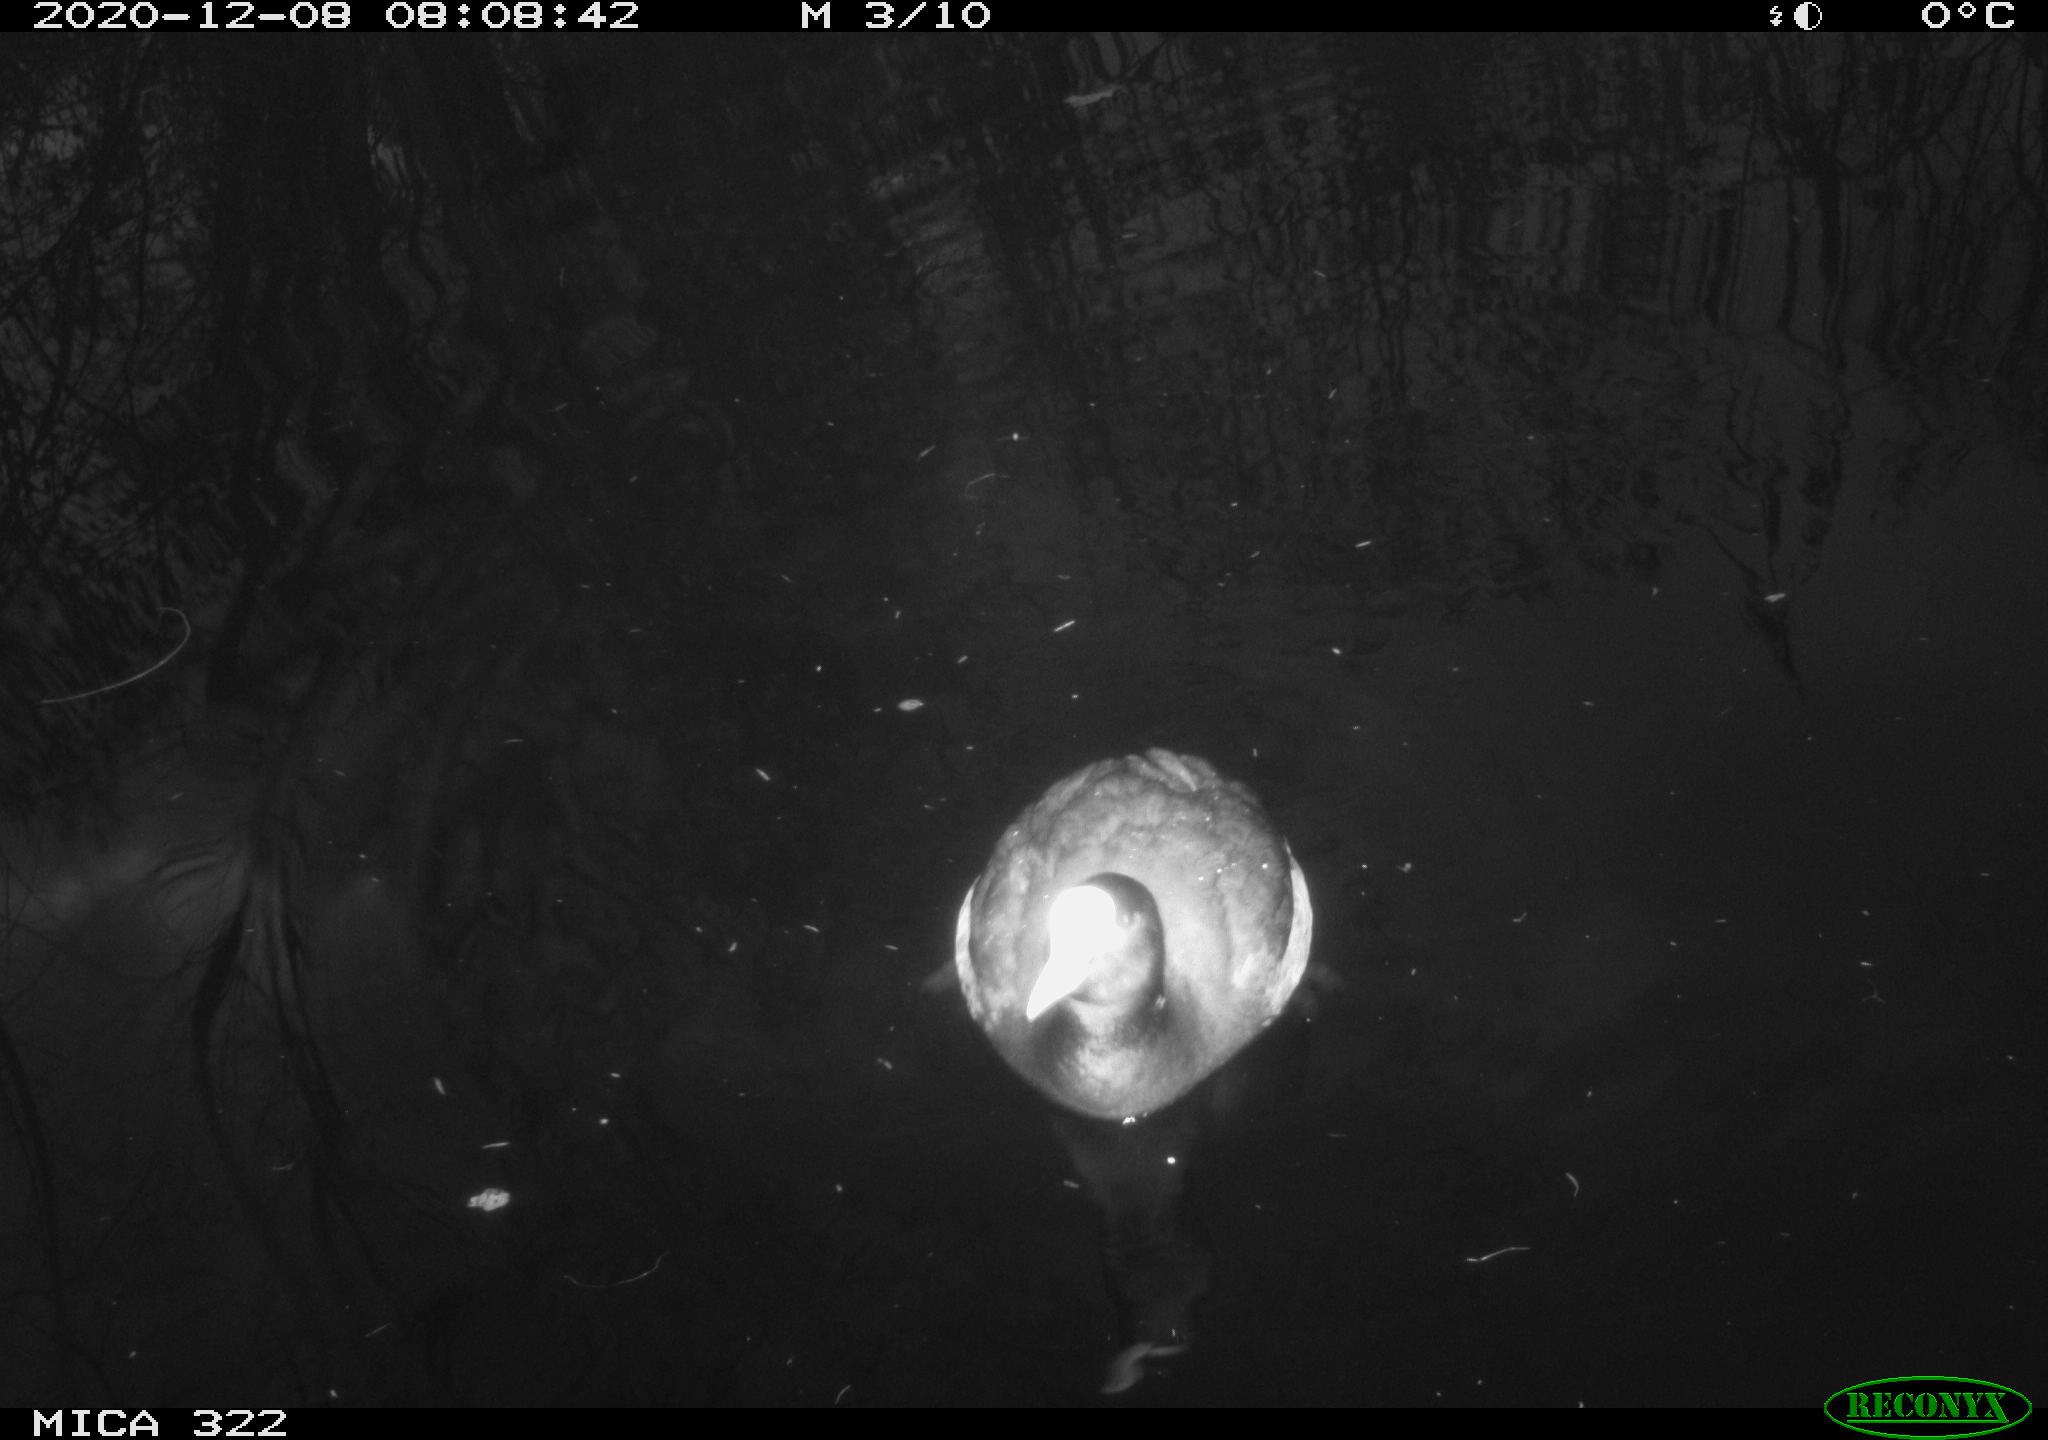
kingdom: Animalia
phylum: Chordata
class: Aves
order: Gruiformes
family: Rallidae
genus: Fulica
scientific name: Fulica atra
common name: Eurasian coot
